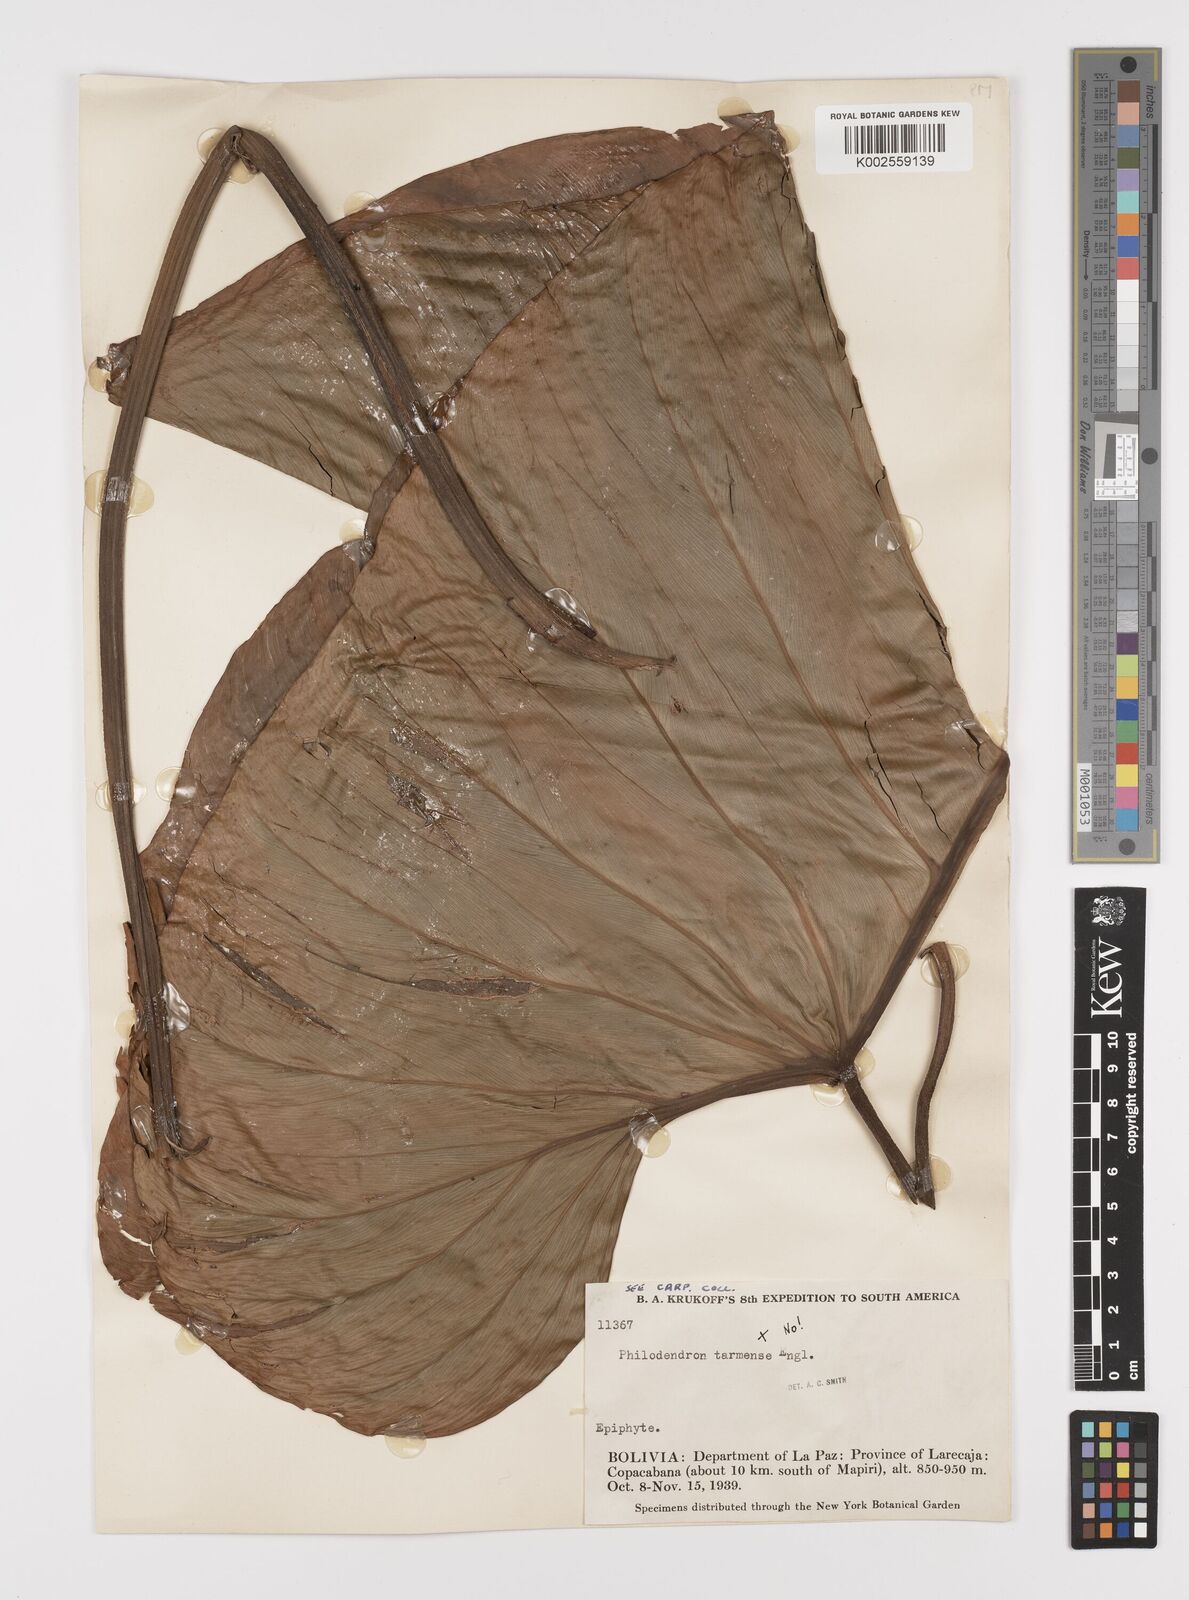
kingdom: Plantae
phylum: Tracheophyta
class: Liliopsida
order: Alismatales
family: Araceae
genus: Philodendron
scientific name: Philodendron ornatum
